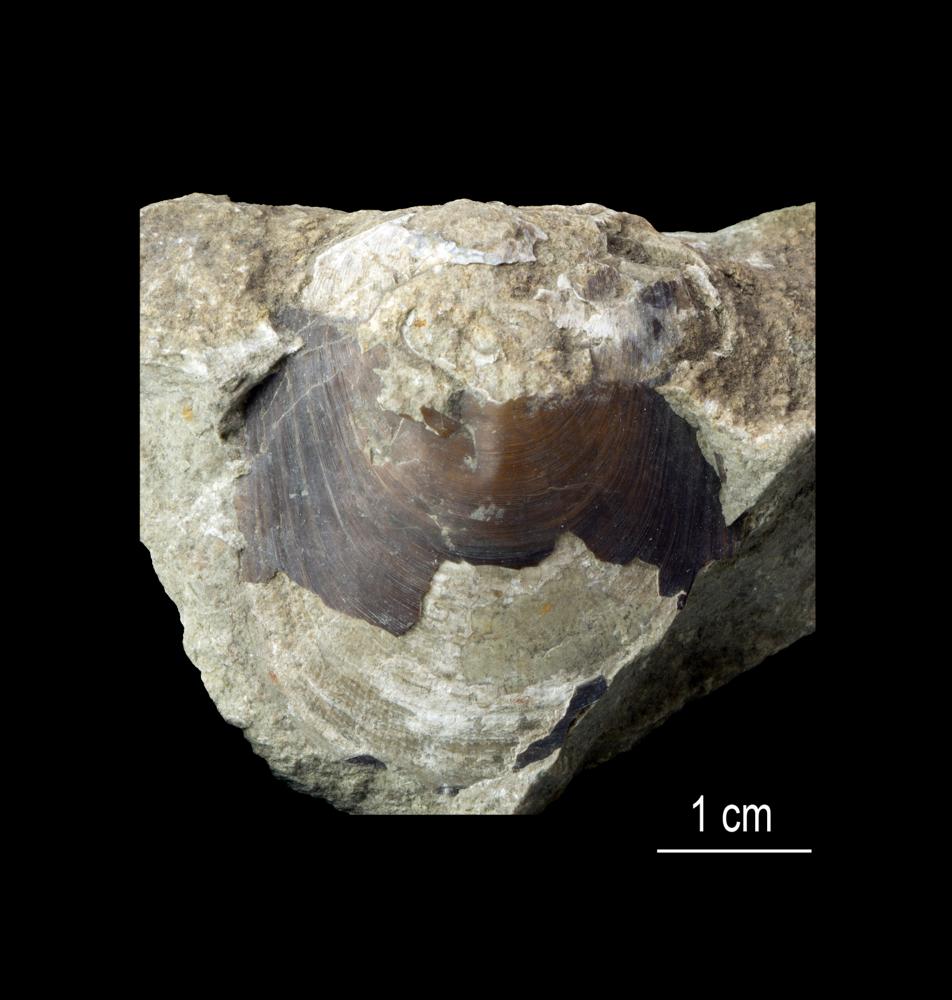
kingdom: Animalia
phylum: Brachiopoda
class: Lingulata
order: Lingulida
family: Pseudolingulidae
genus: Pseudolingula
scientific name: Pseudolingula
